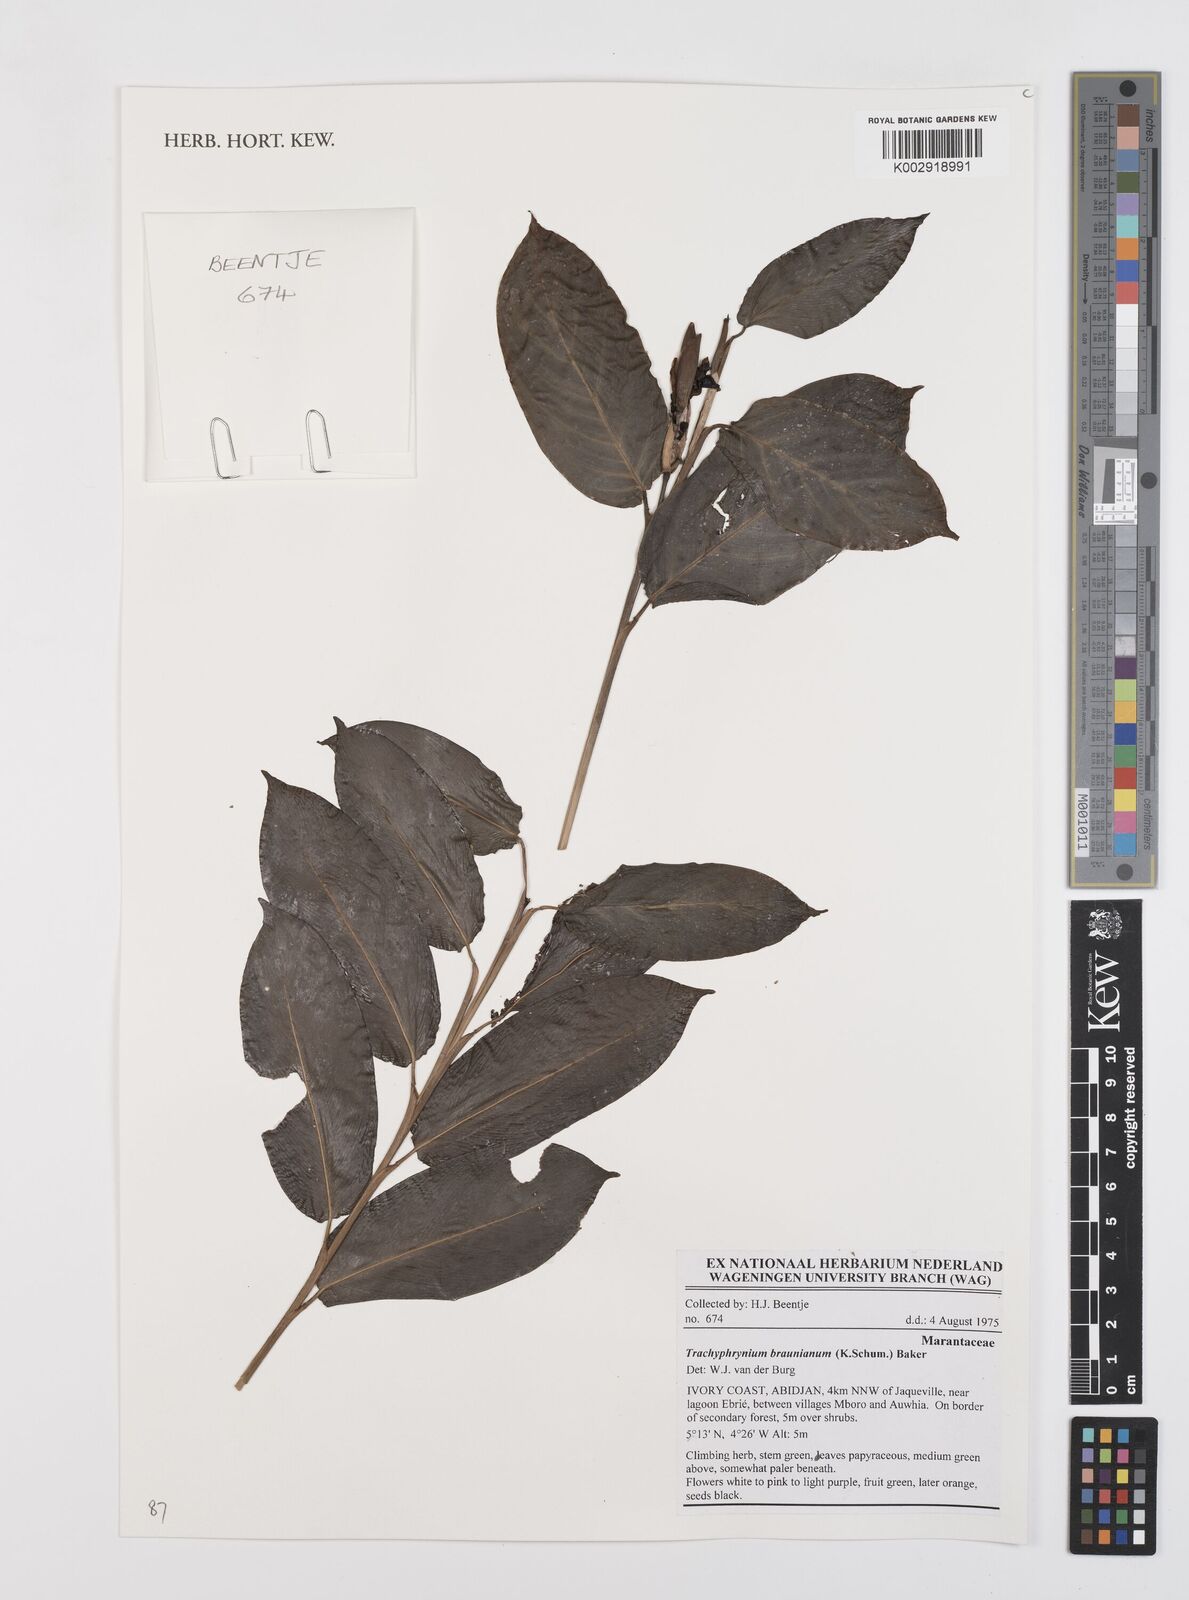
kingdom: Plantae
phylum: Tracheophyta
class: Liliopsida
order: Zingiberales
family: Marantaceae
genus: Trachyphrynium
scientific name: Trachyphrynium braunianum
